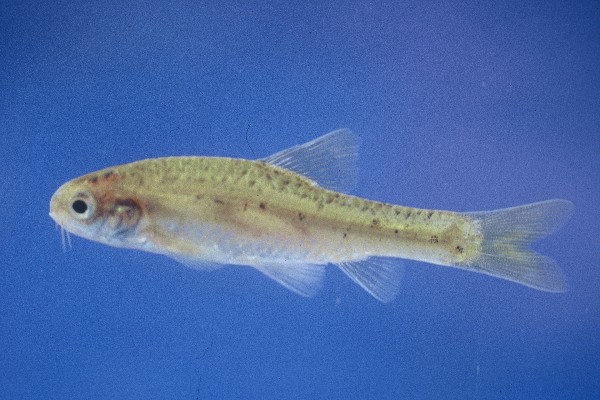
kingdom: Animalia
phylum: Chordata
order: Cypriniformes
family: Cyprinidae
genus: Enteromius
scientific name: Enteromius pallidus
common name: Goldie barb
